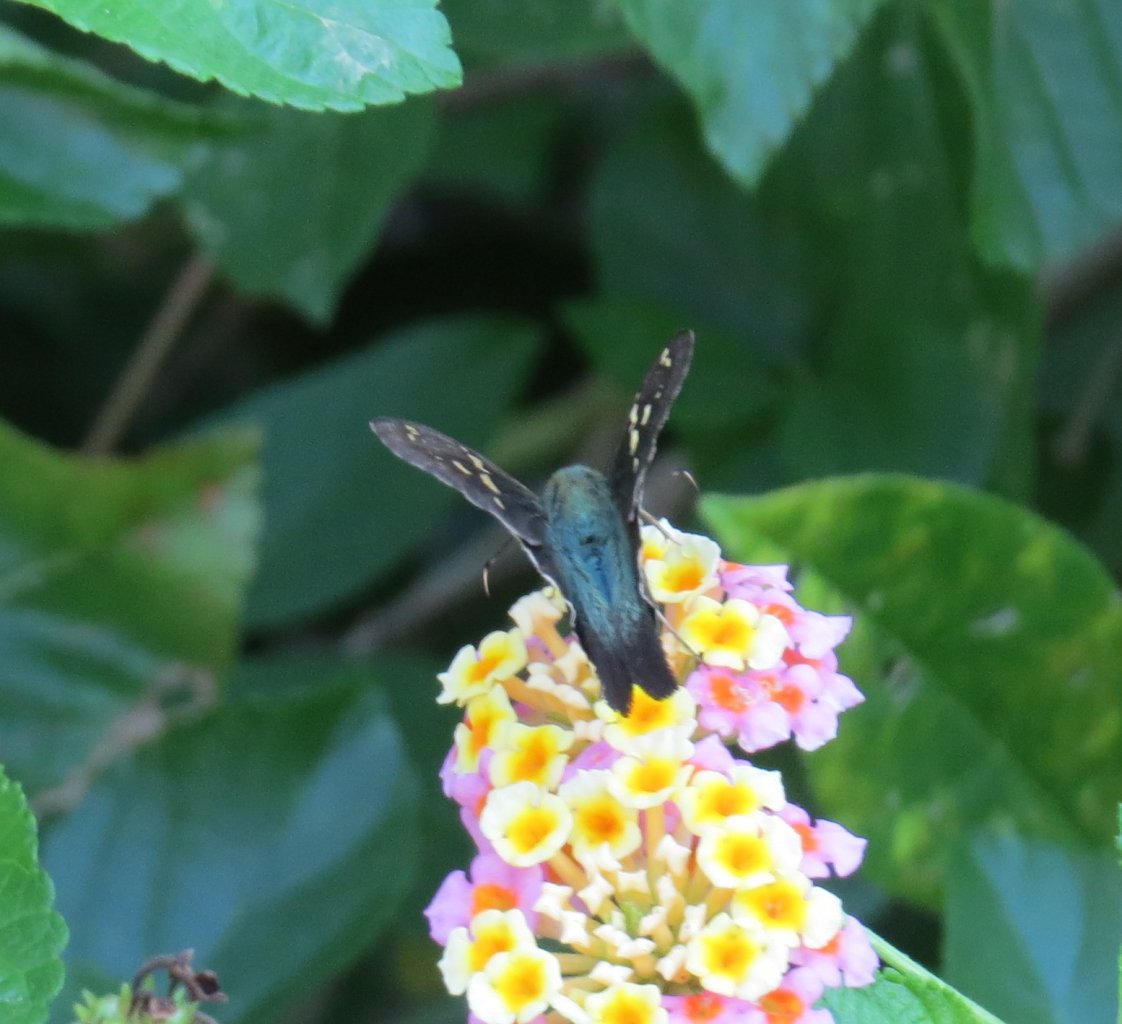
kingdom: Animalia
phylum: Arthropoda
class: Insecta
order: Lepidoptera
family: Hesperiidae
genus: Urbanus
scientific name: Urbanus proteus
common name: Long-tailed Skipper
